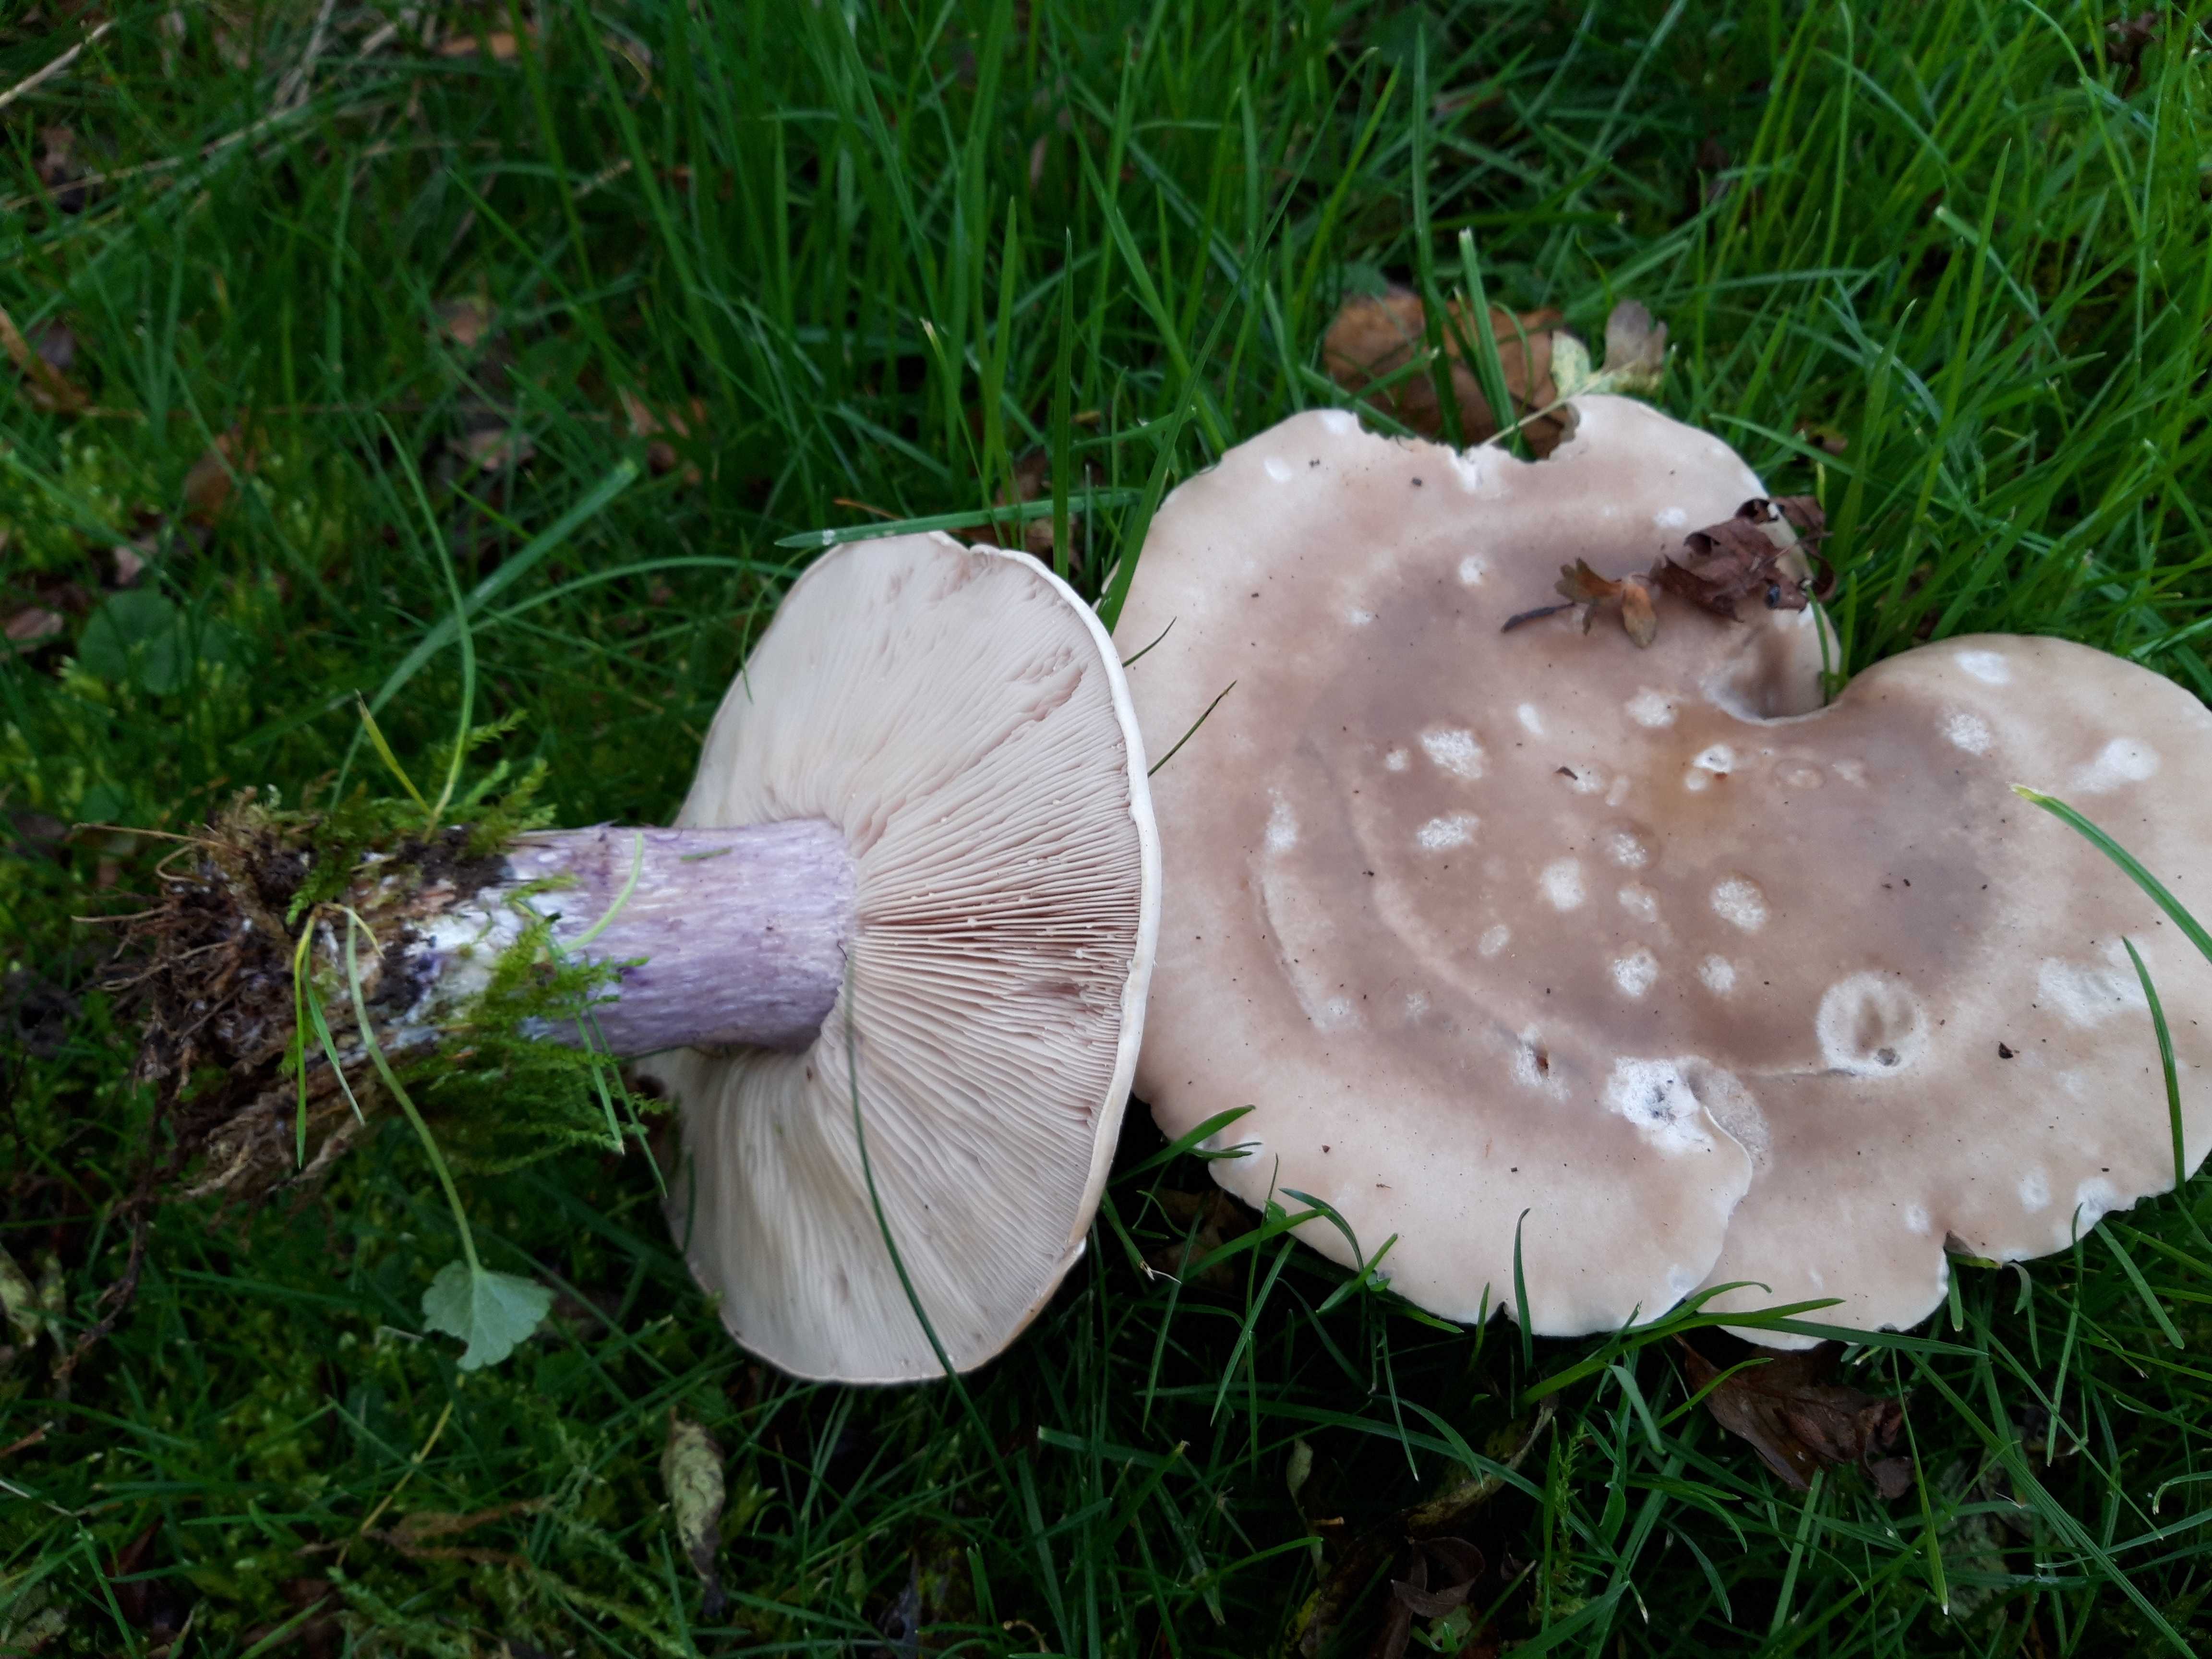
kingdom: Fungi
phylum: Basidiomycota
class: Agaricomycetes
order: Agaricales
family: Tricholomataceae
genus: Lepista
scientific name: Lepista personata
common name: bleg hekseringshat
